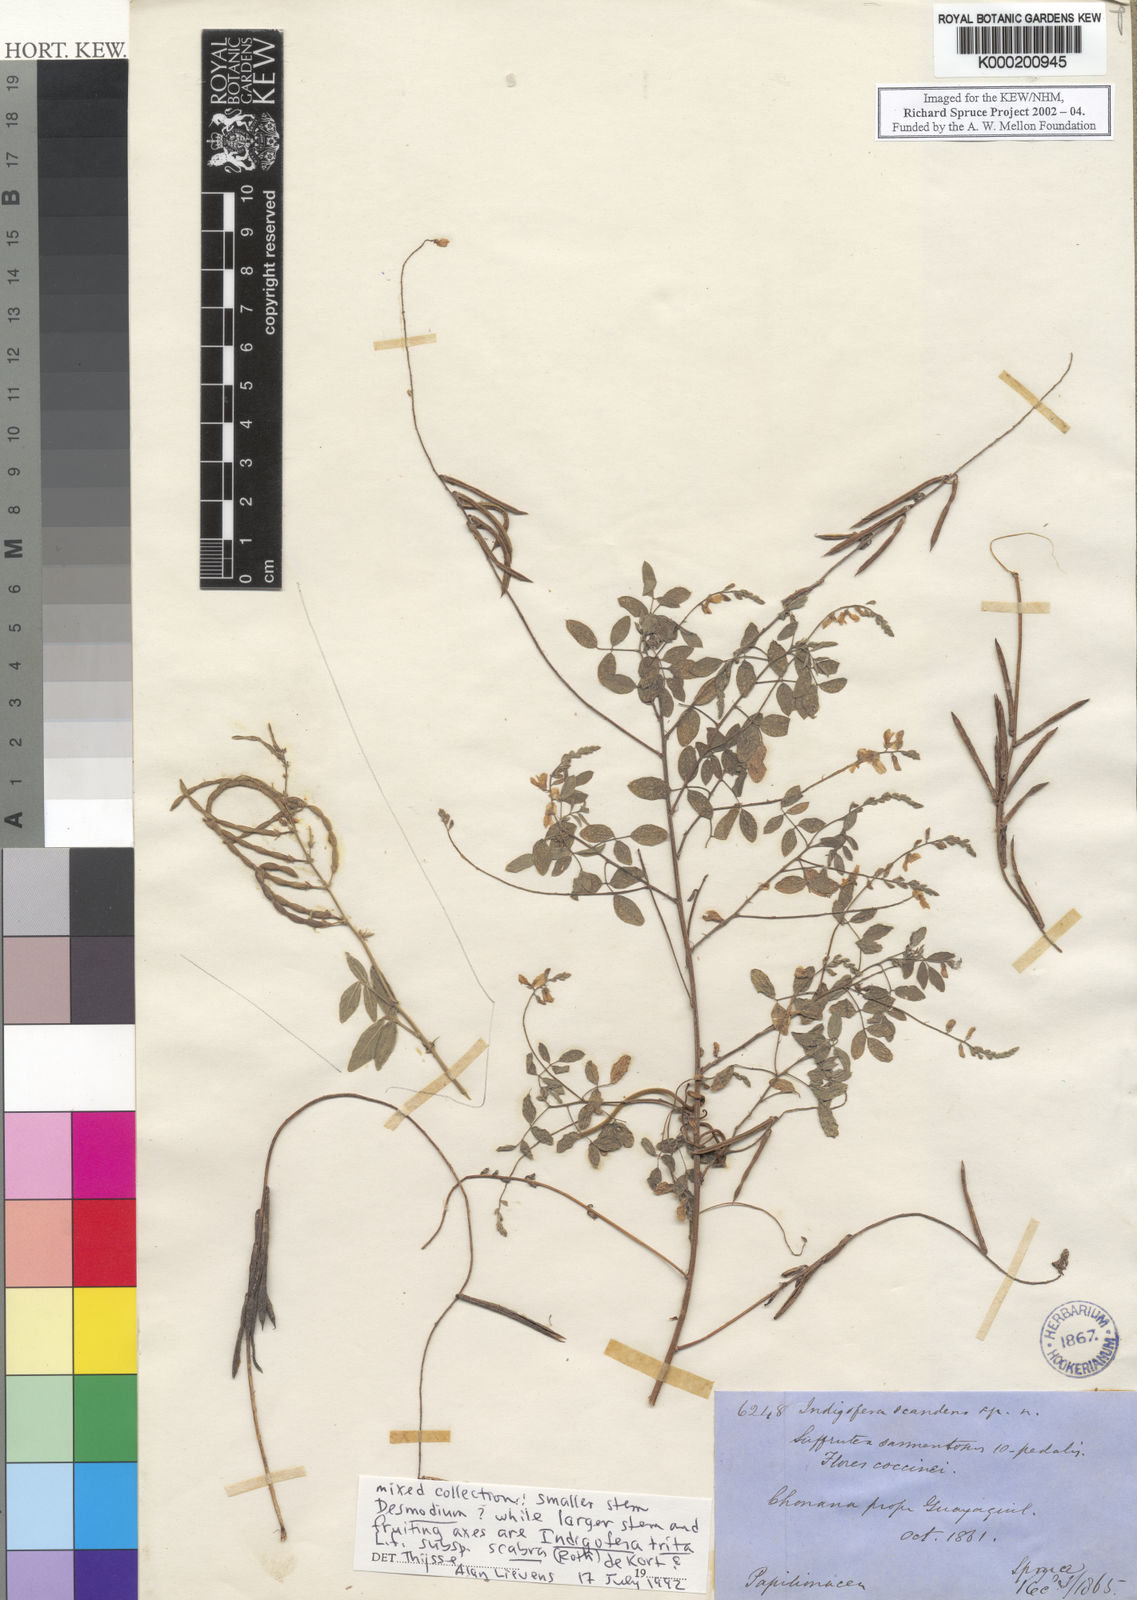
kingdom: Plantae
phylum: Tracheophyta
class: Magnoliopsida
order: Fabales
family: Fabaceae
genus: Indigofera
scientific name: Indigofera subulata
